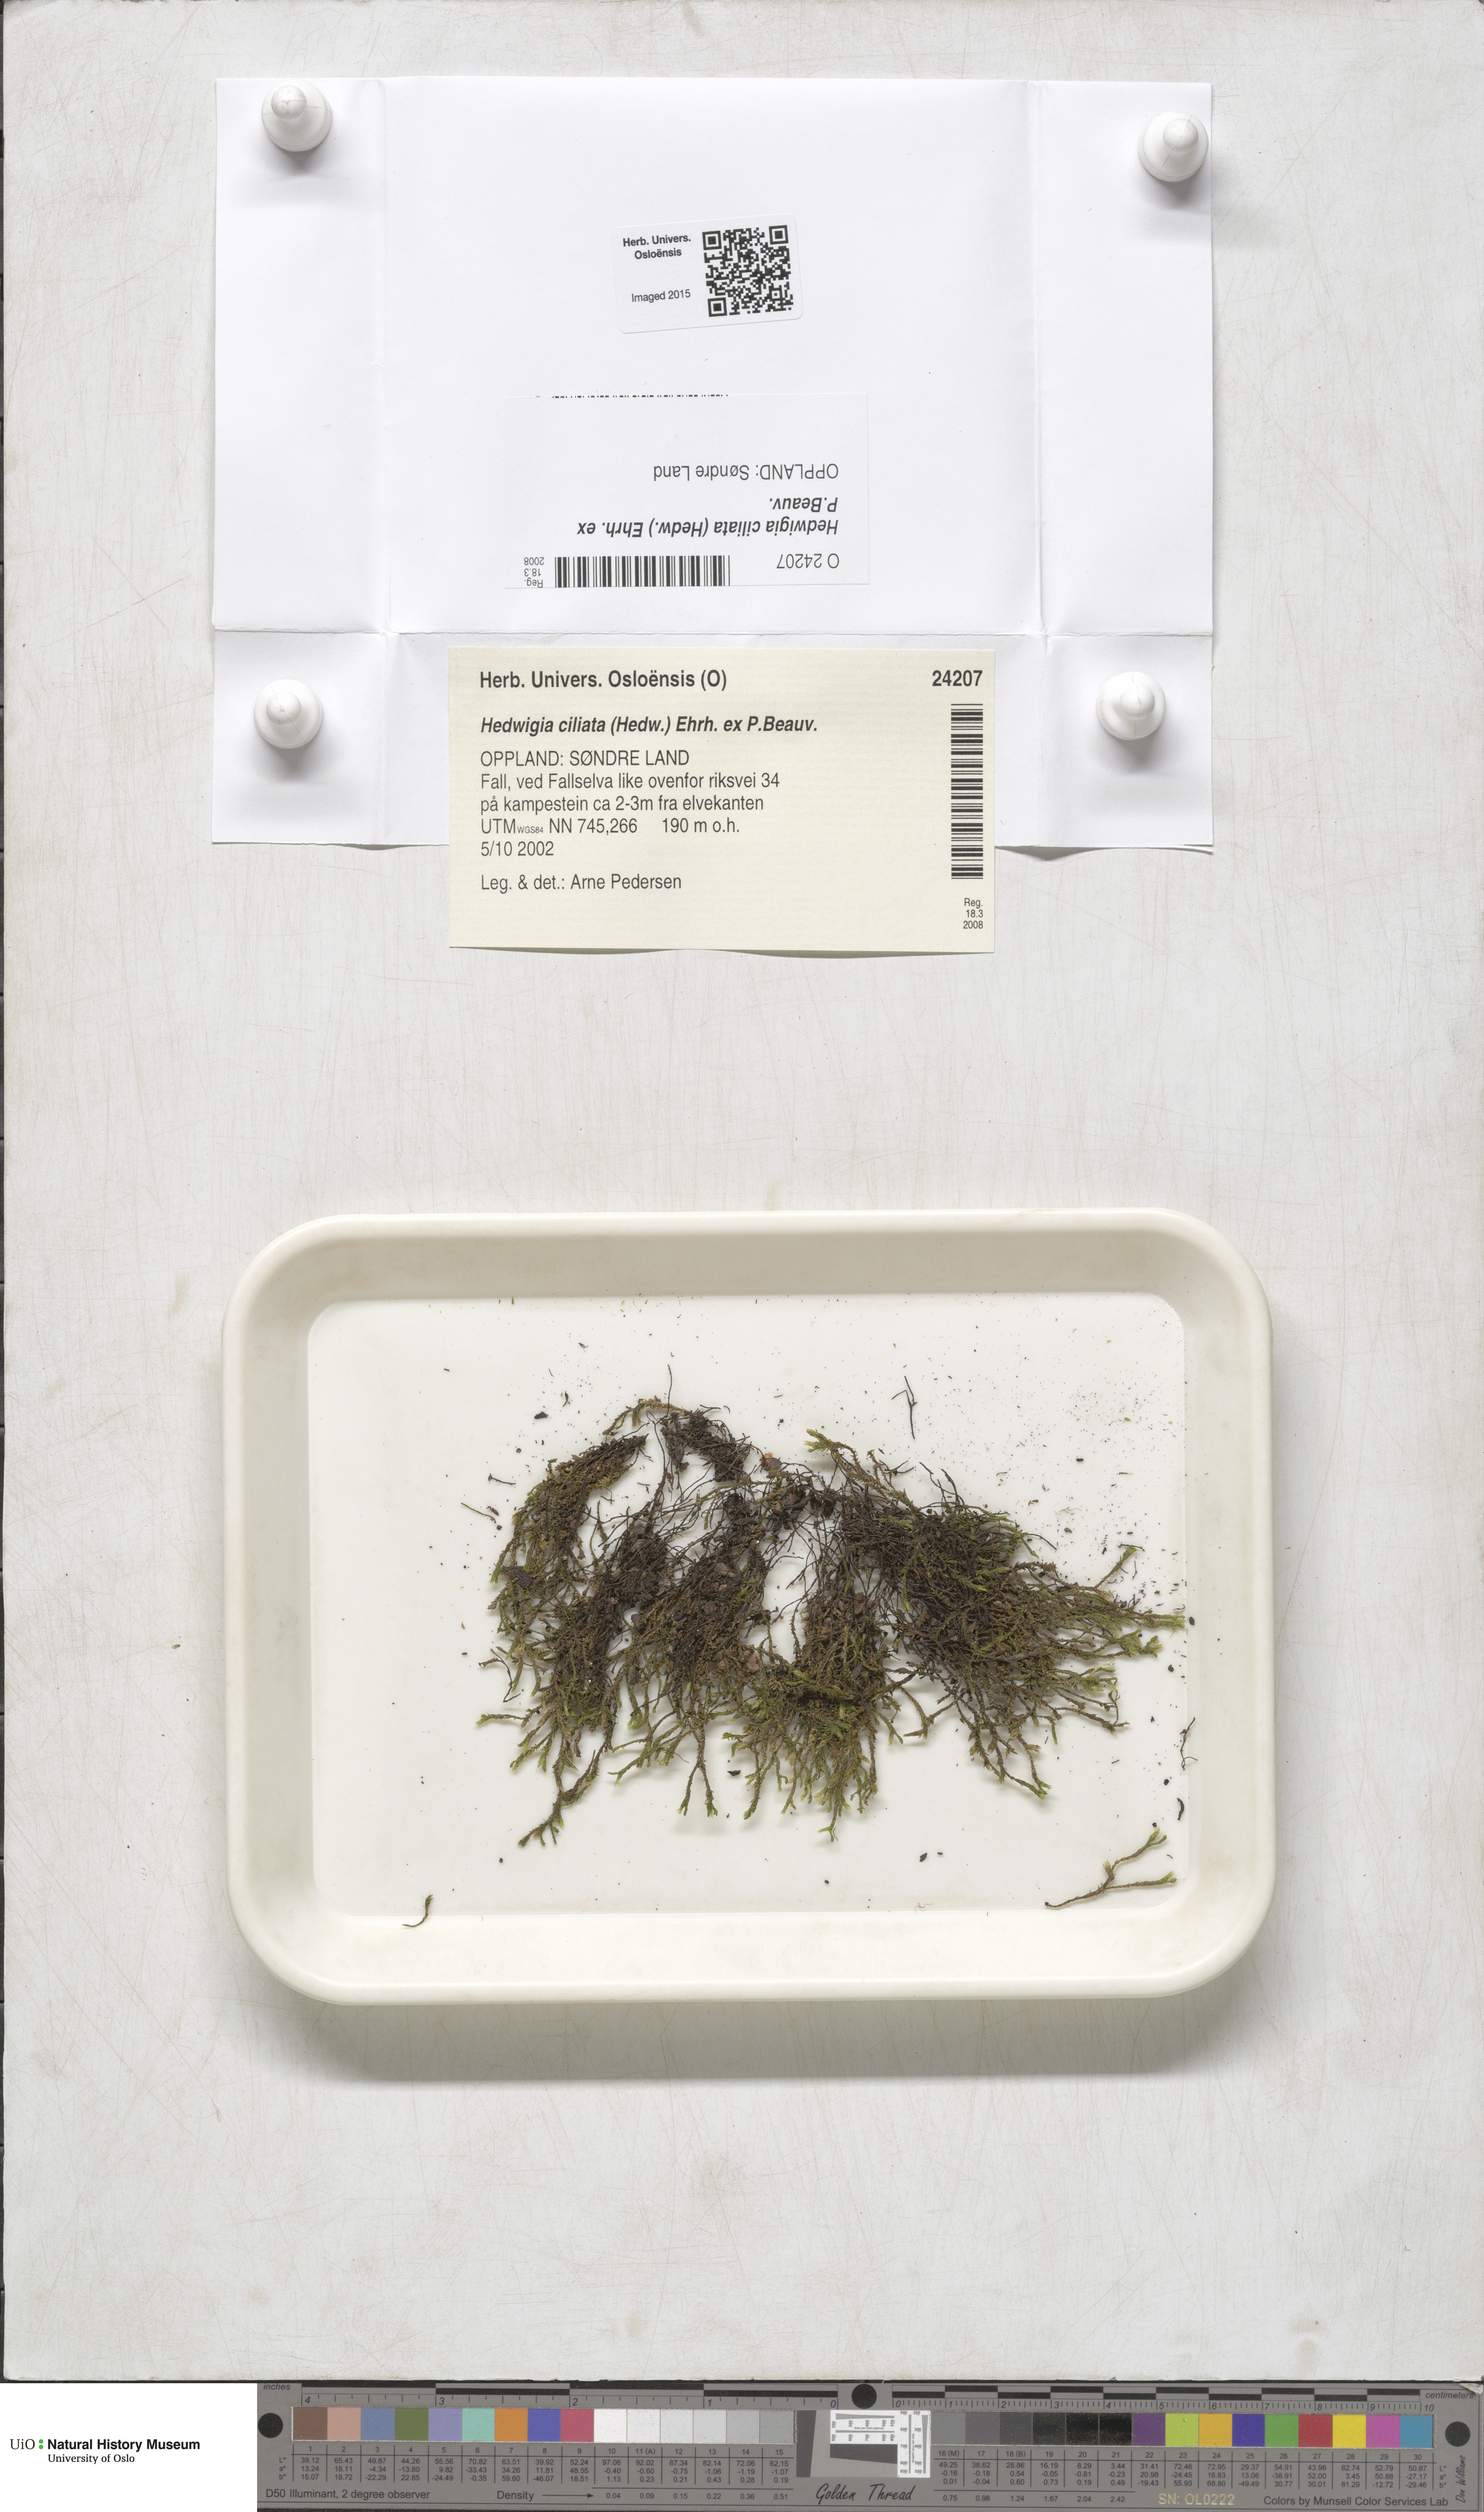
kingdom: Plantae
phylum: Bryophyta
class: Bryopsida
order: Hedwigiales
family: Hedwigiaceae
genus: Hedwigia
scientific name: Hedwigia ciliata
